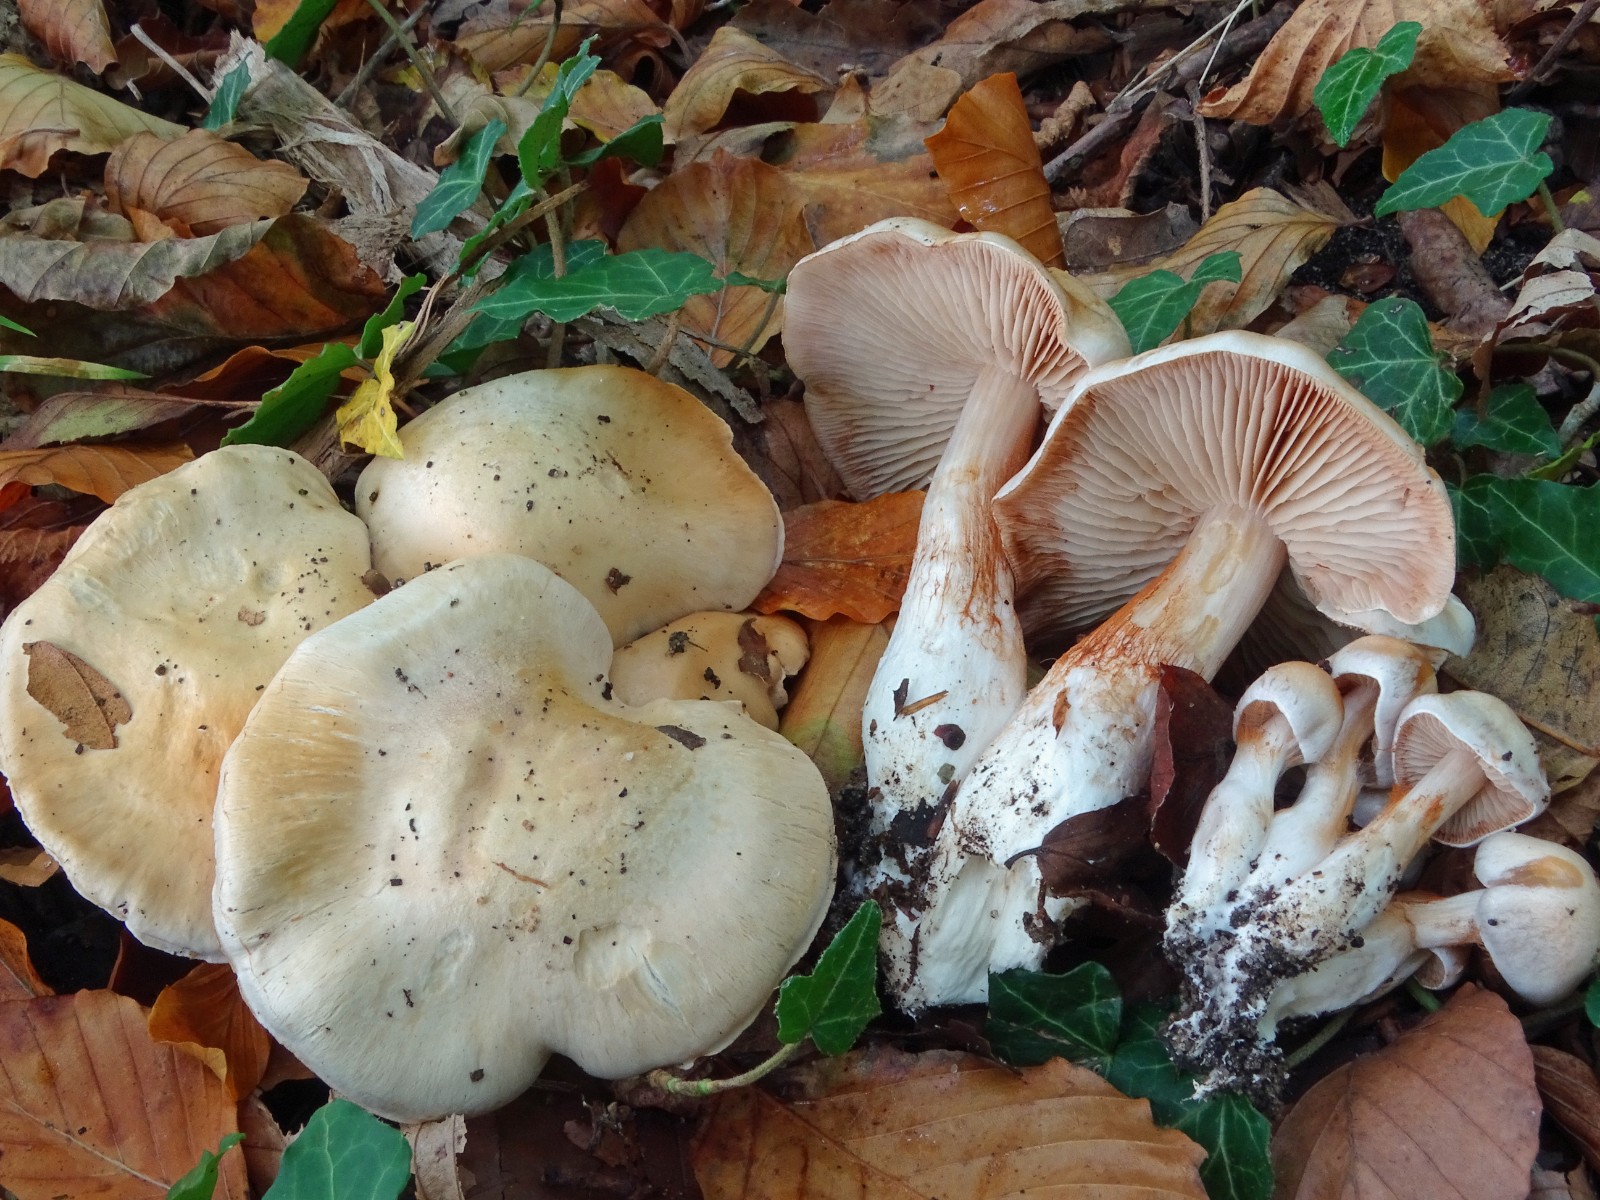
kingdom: Fungi
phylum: Basidiomycota
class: Agaricomycetes
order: Agaricales
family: Cortinariaceae
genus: Thaxterogaster
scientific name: Thaxterogaster barbatus
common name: elfenbens-slørhat
